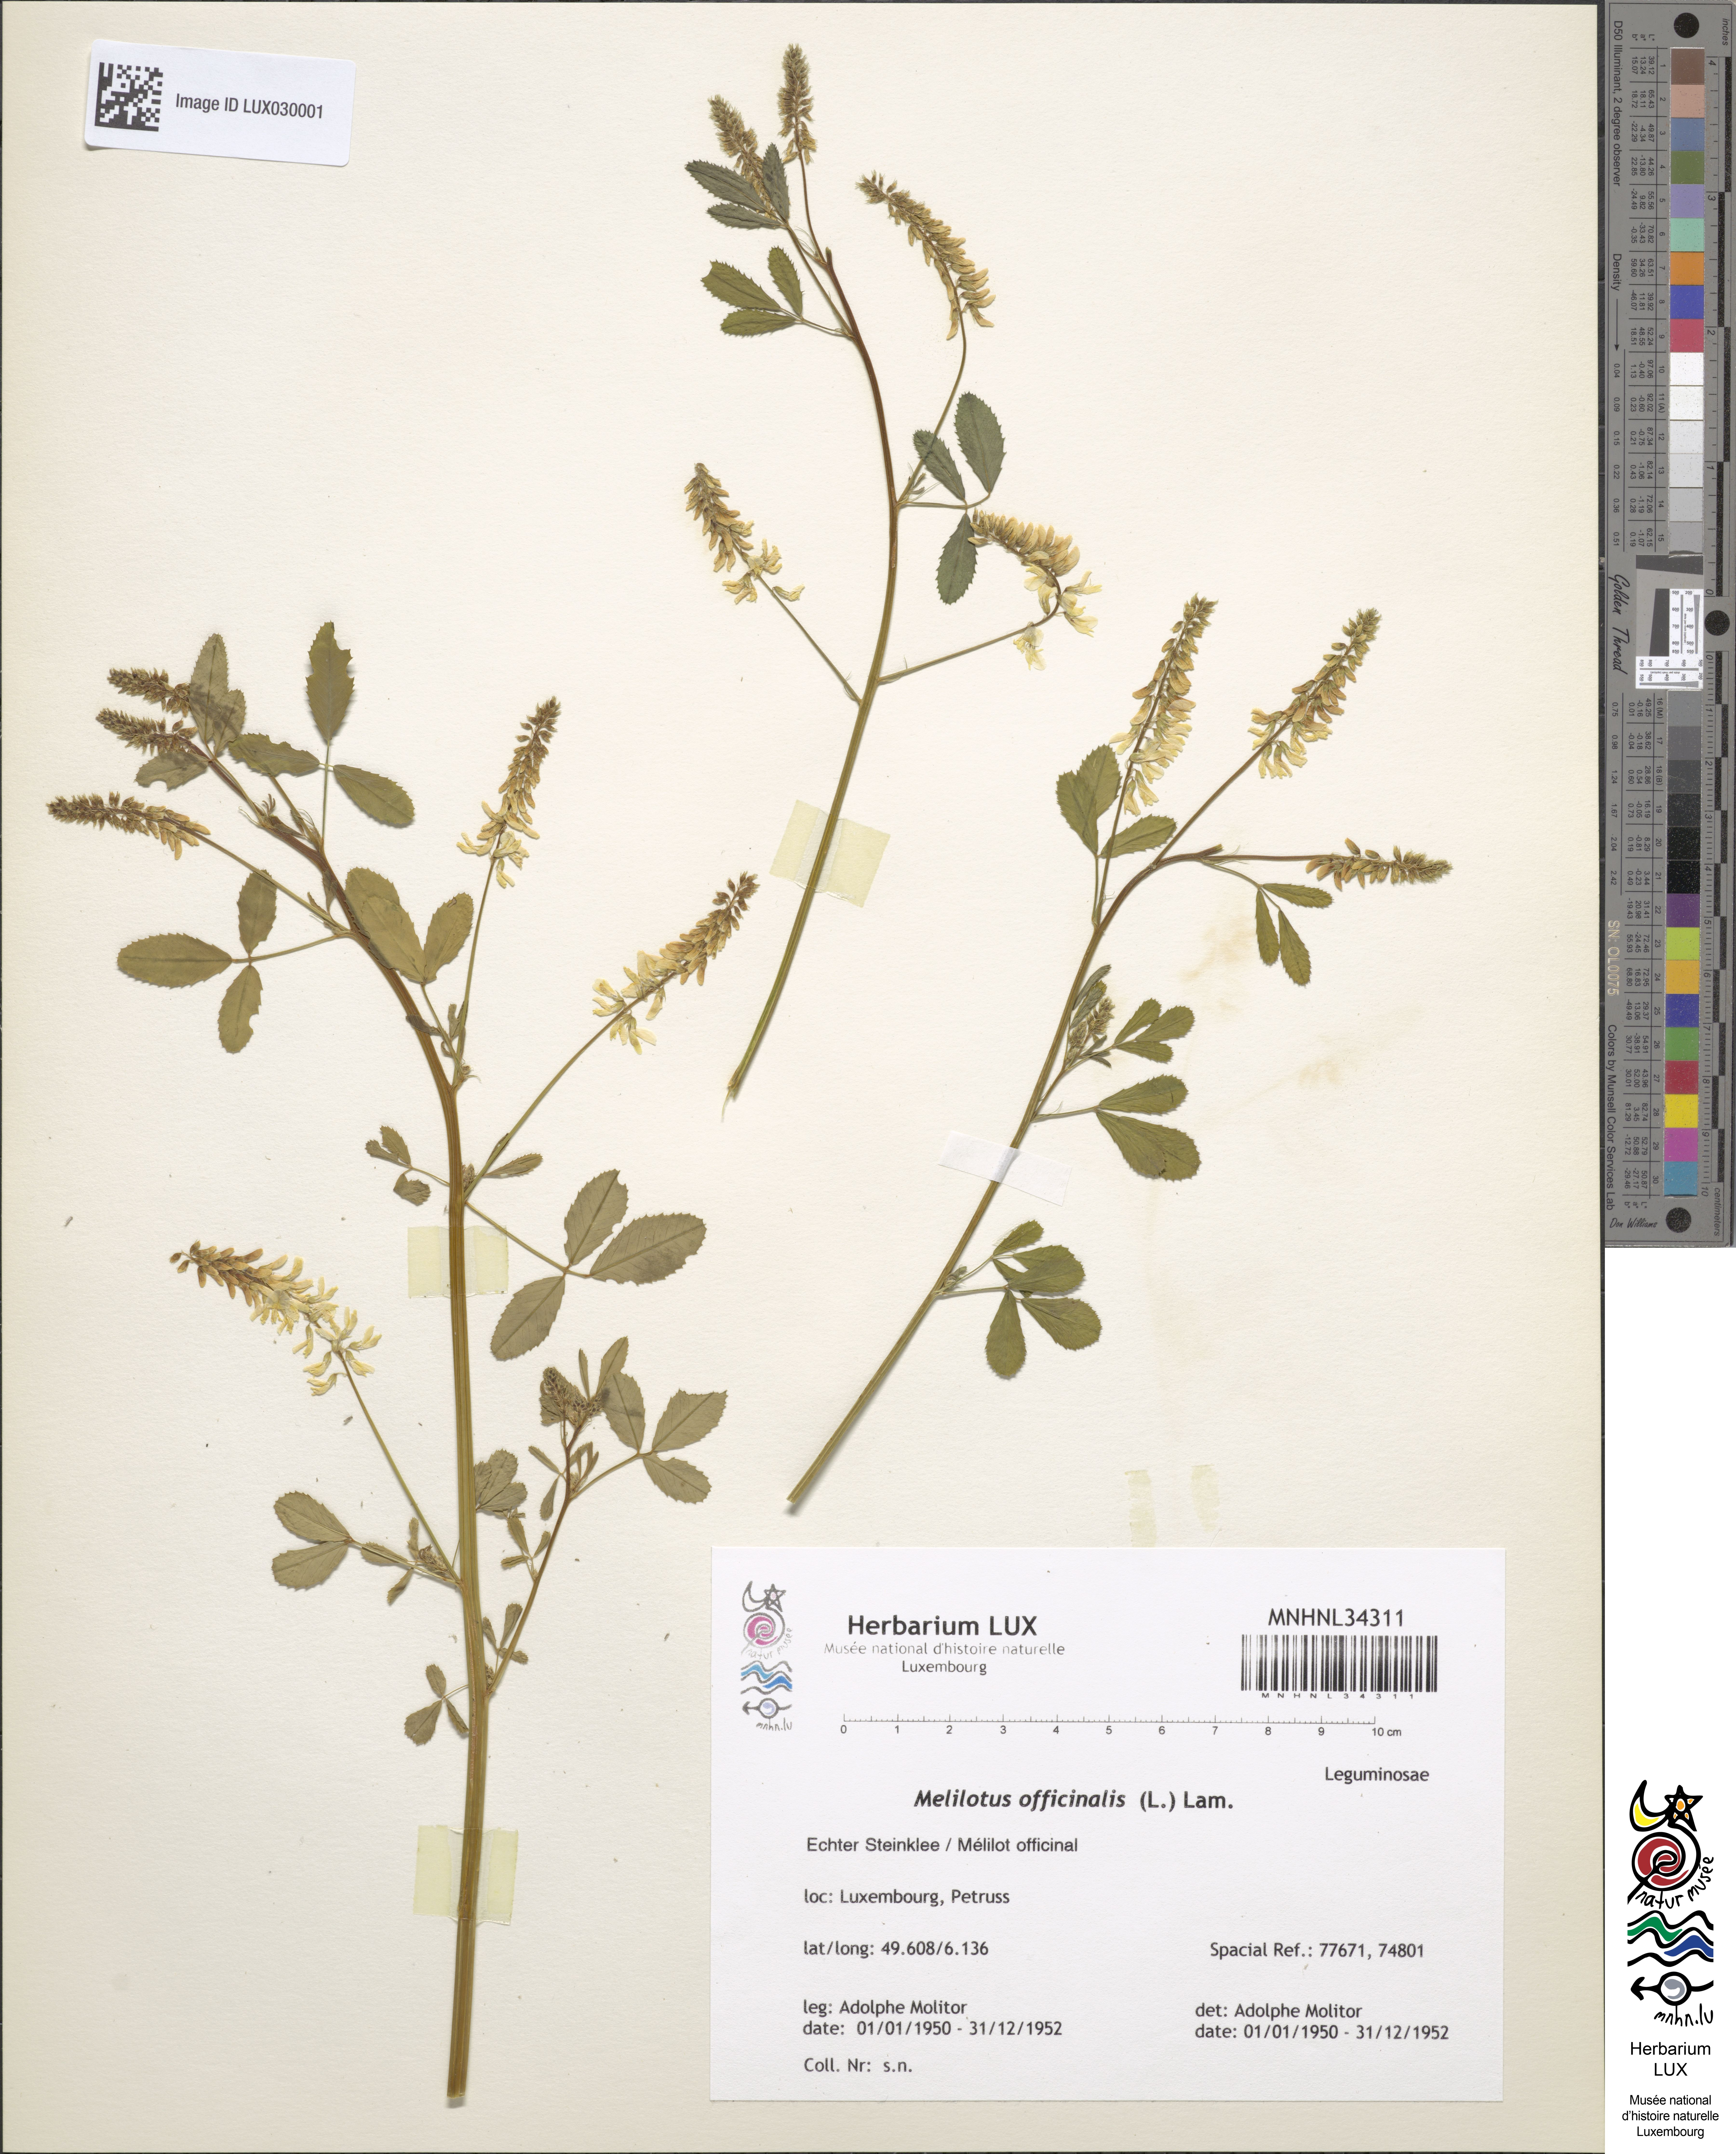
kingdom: Plantae
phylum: Tracheophyta
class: Magnoliopsida
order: Fabales
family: Fabaceae
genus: Melilotus
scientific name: Melilotus officinalis
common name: Sweetclover
